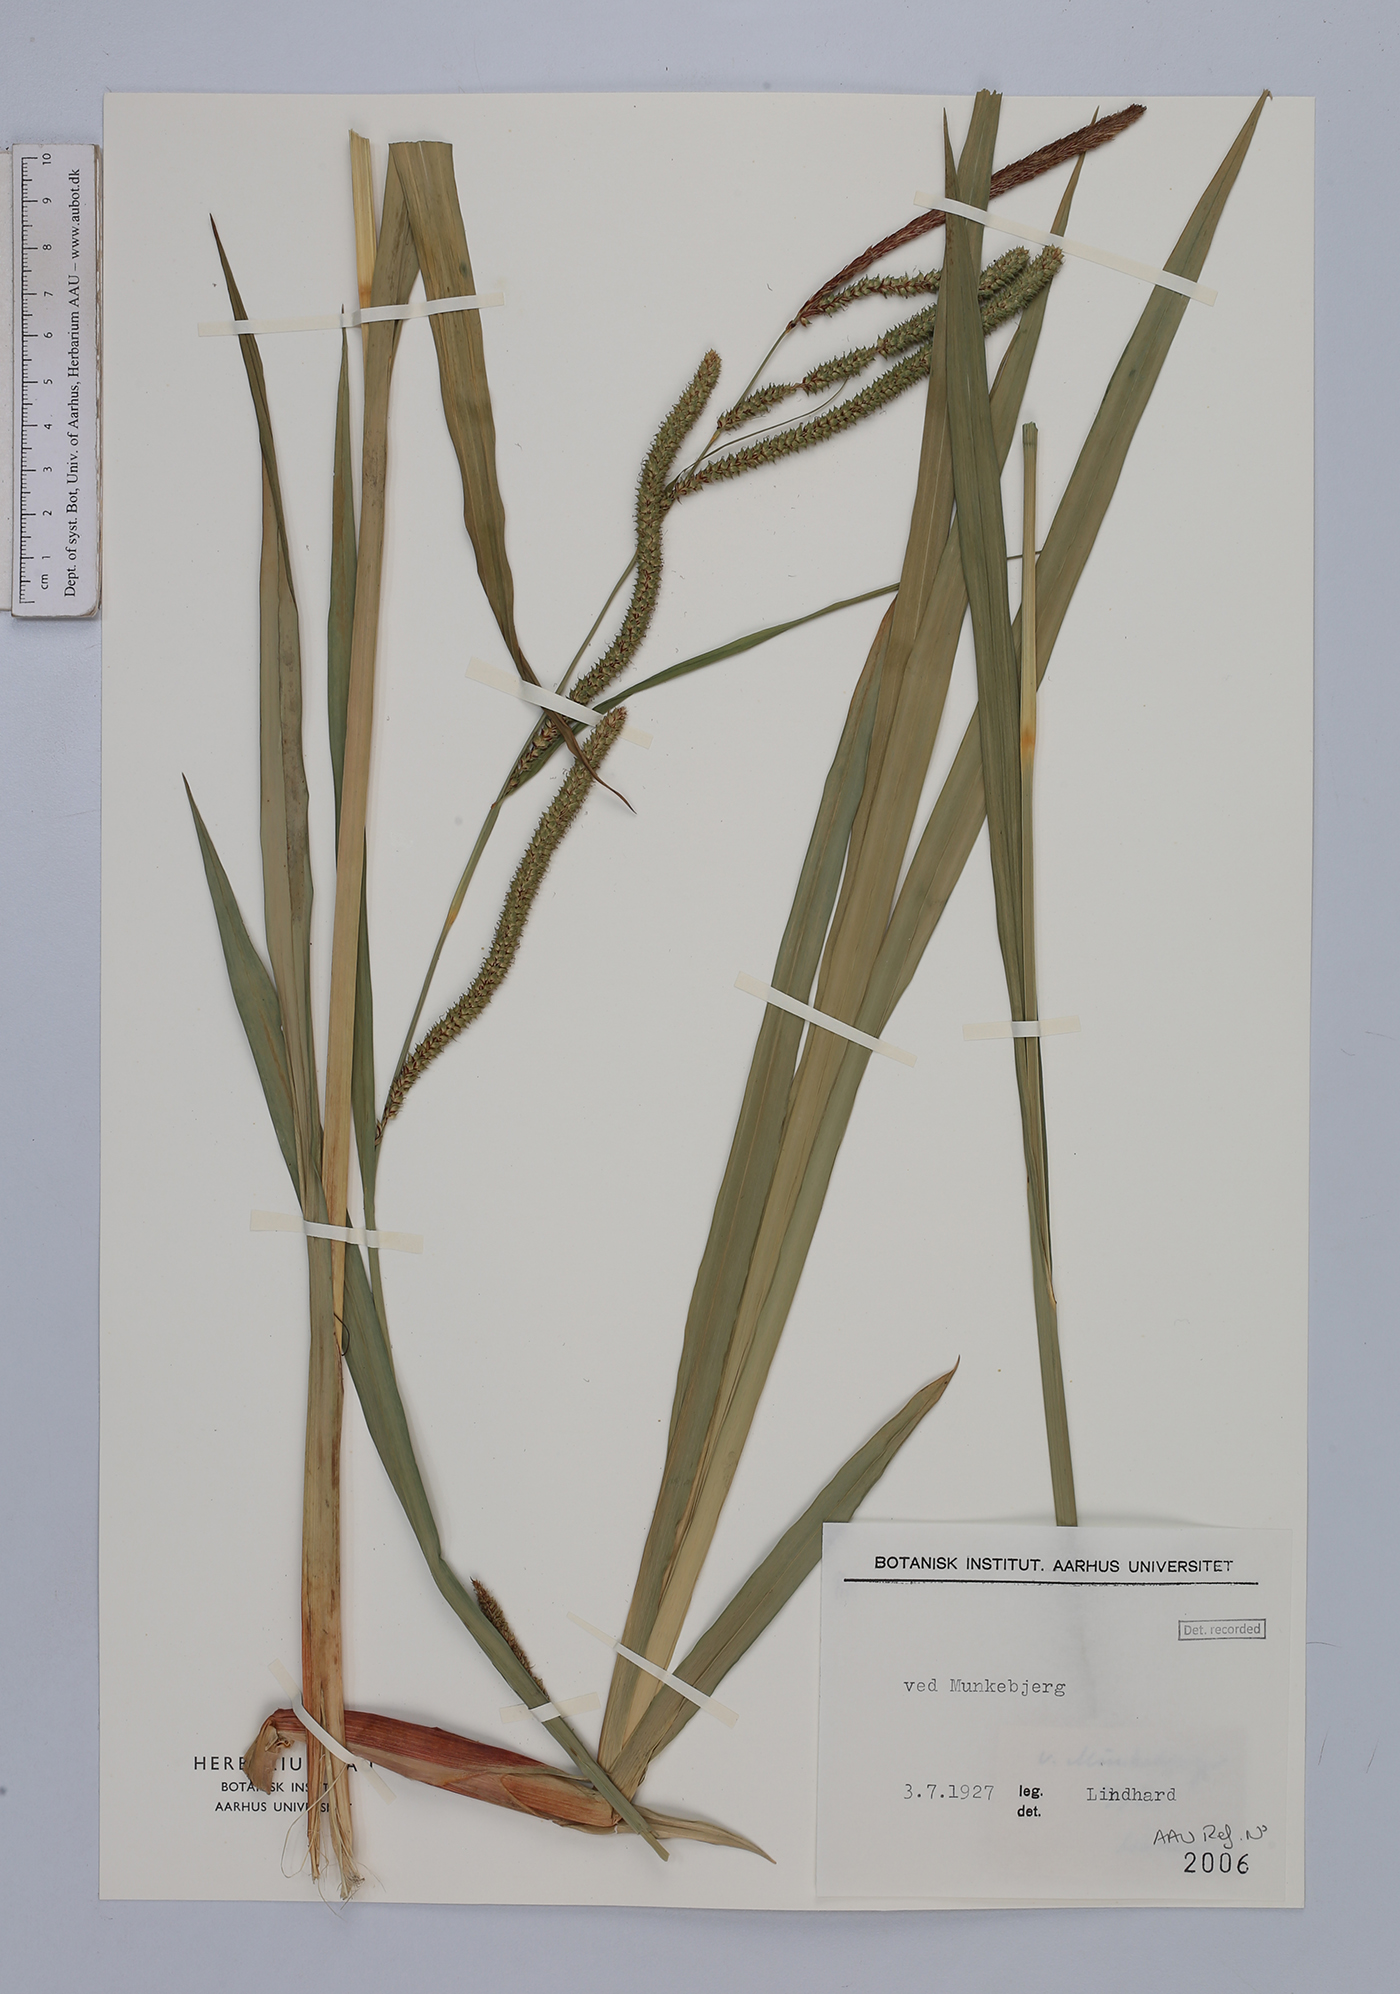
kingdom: Plantae
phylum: Tracheophyta
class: Liliopsida
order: Poales
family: Cyperaceae
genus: Carex
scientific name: Carex pendula
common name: Pendulous sedge
